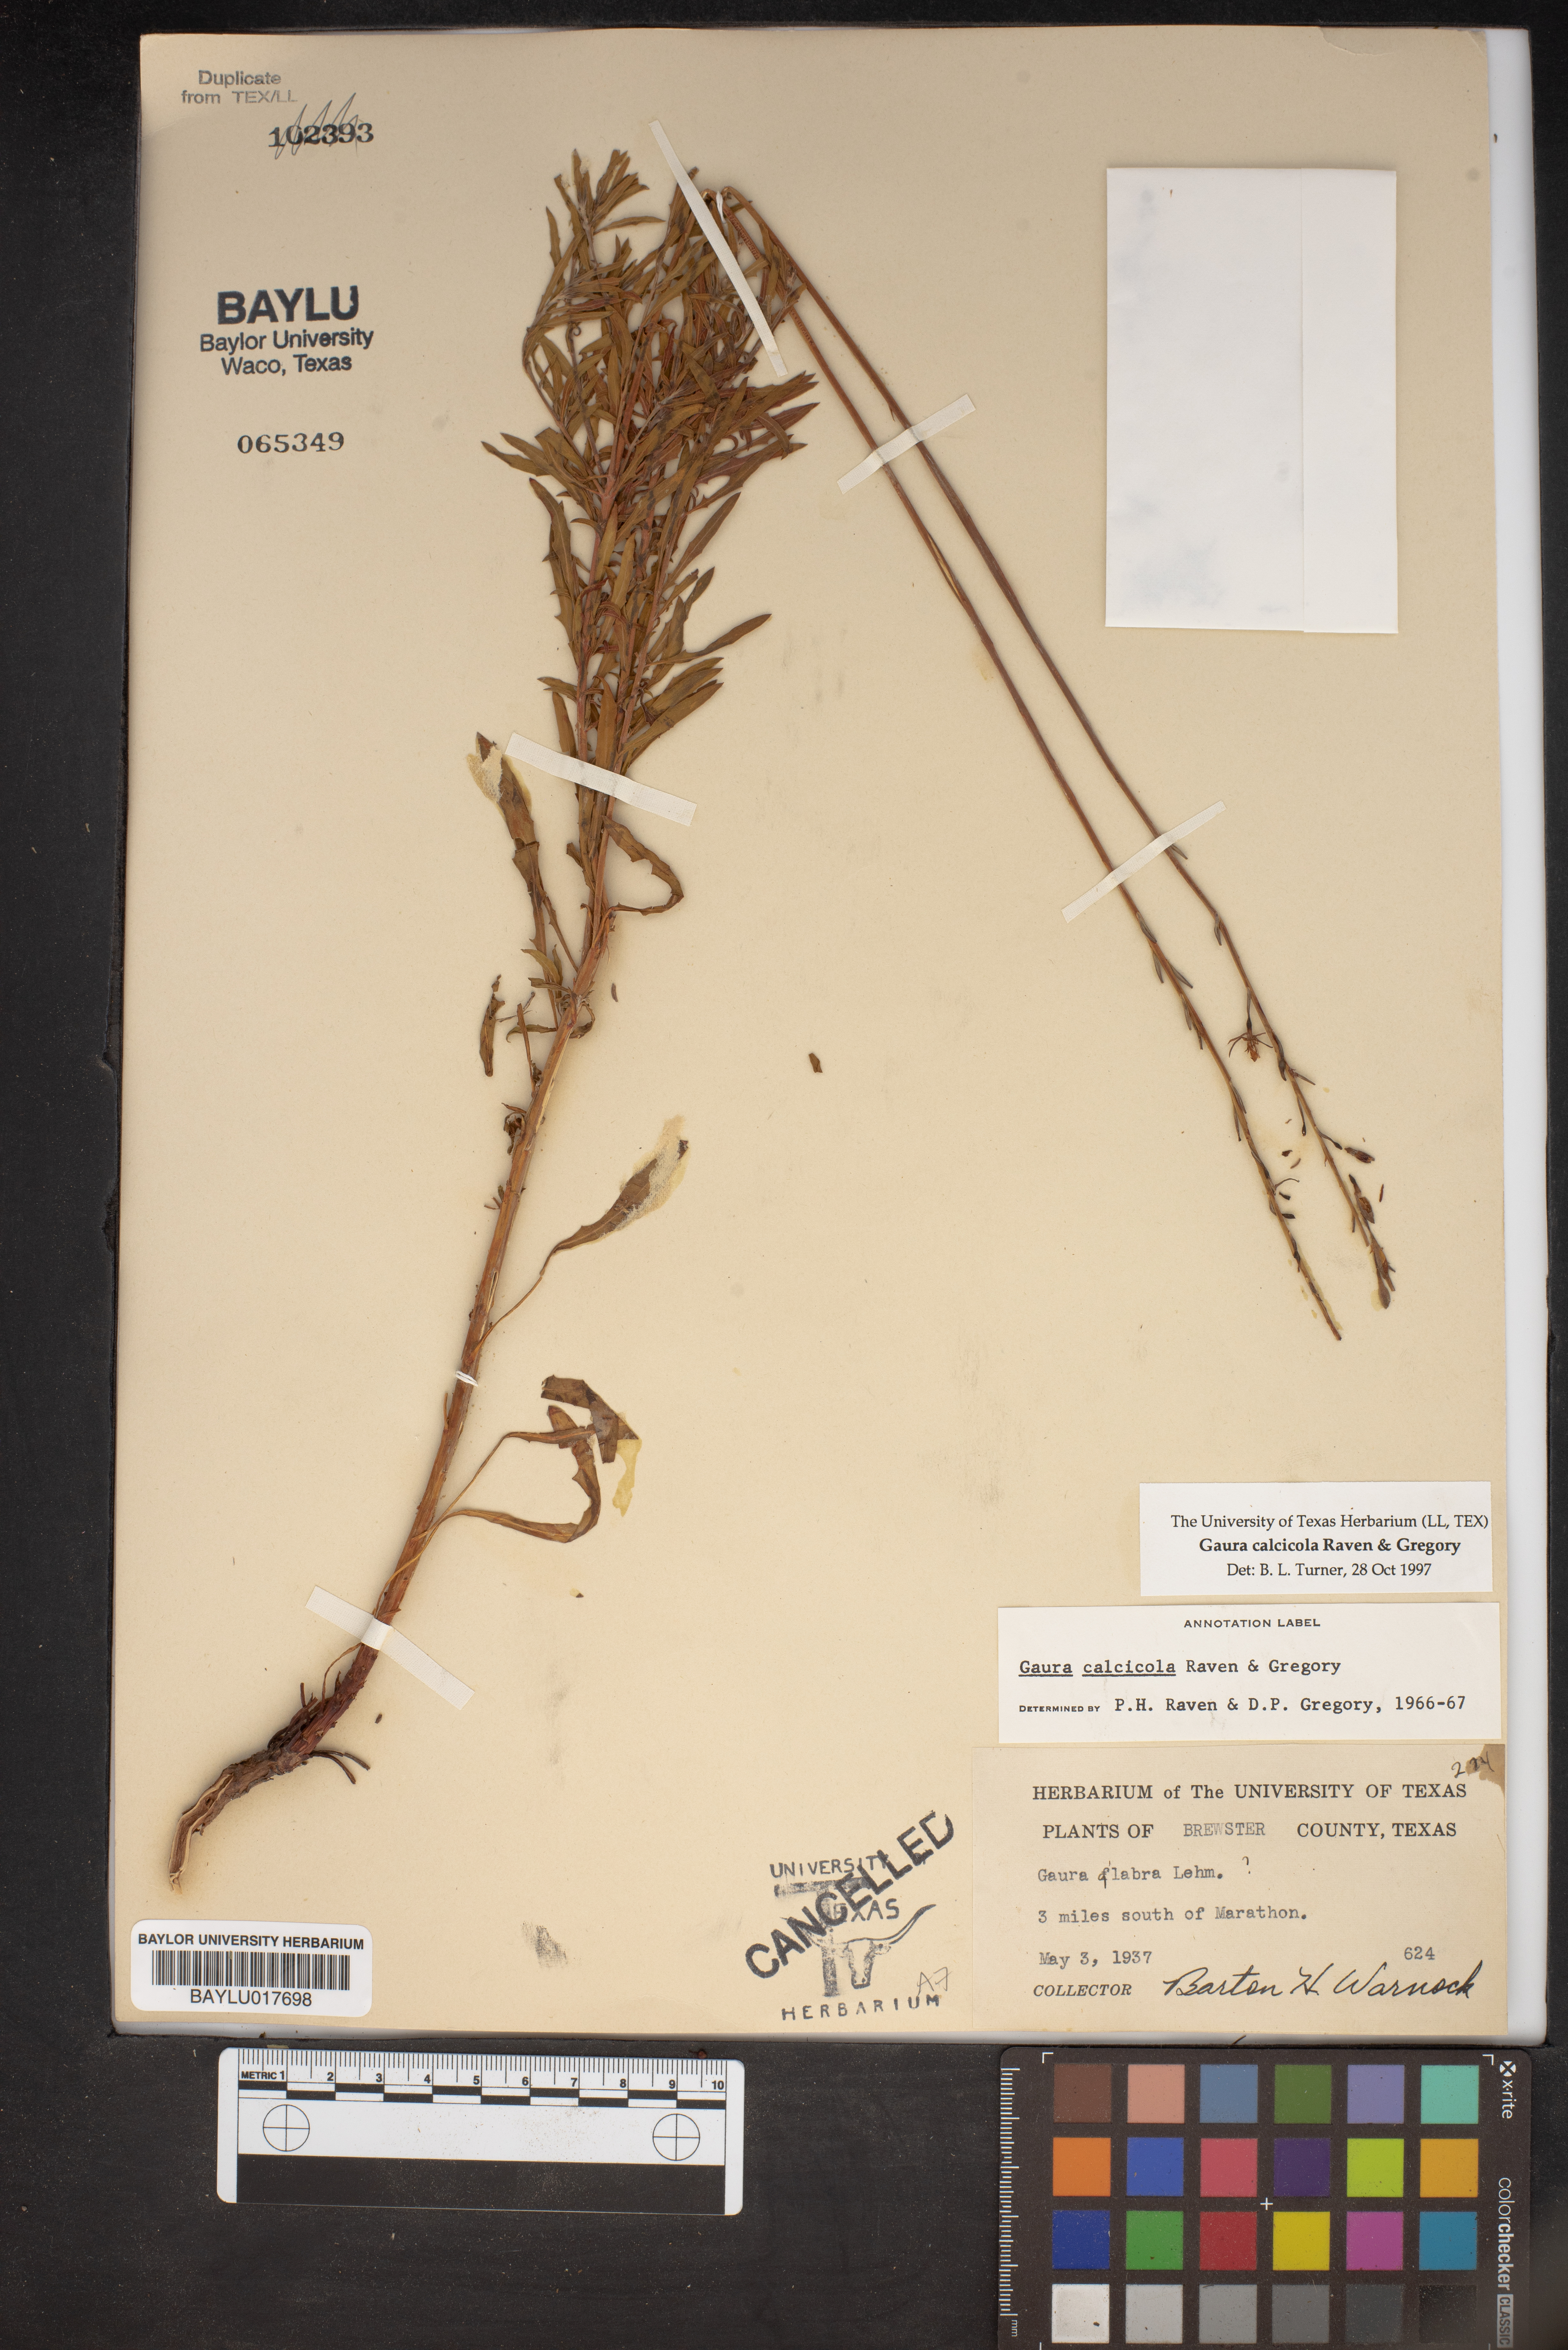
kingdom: Plantae
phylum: Tracheophyta
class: Magnoliopsida
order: Myrtales
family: Onagraceae
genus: Oenothera
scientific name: Oenothera calcicola
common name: Texas beeblossom
